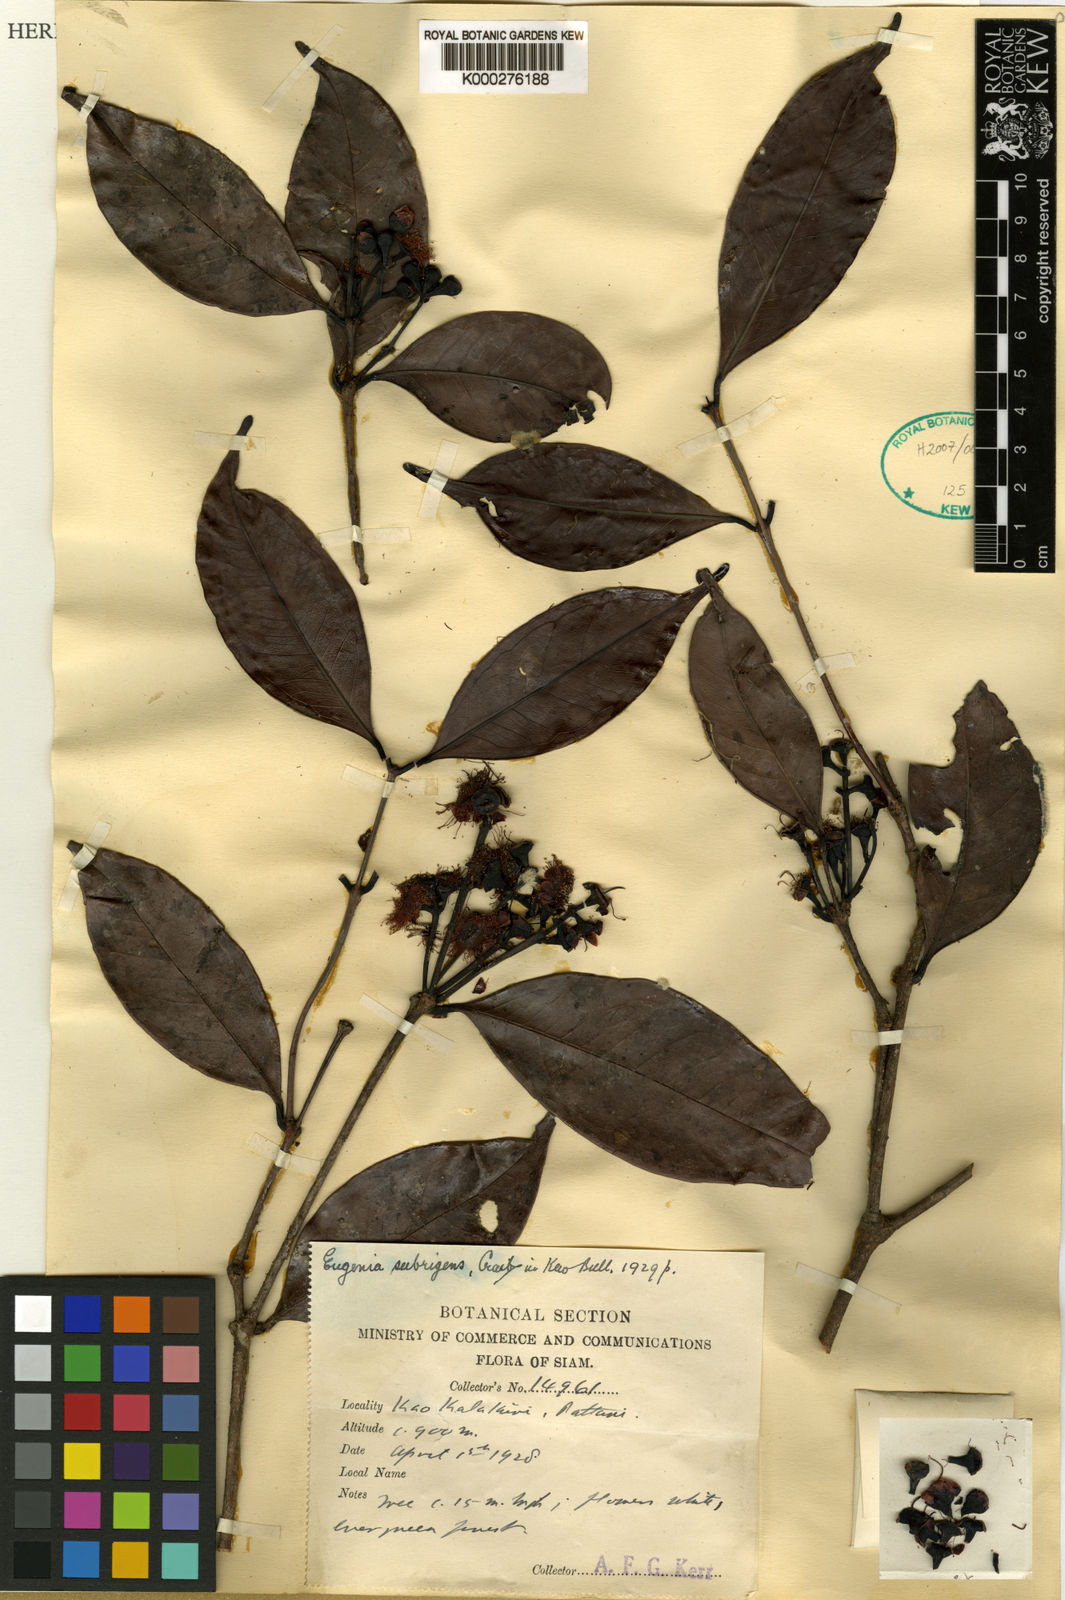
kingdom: Plantae
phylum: Tracheophyta
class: Magnoliopsida
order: Myrtales
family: Myrtaceae
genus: Syzygium
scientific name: Syzygium
